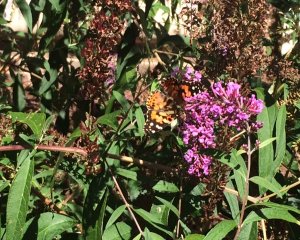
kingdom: Animalia
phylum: Arthropoda
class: Insecta
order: Lepidoptera
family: Nymphalidae
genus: Vanessa
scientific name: Vanessa cardui
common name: Painted Lady
